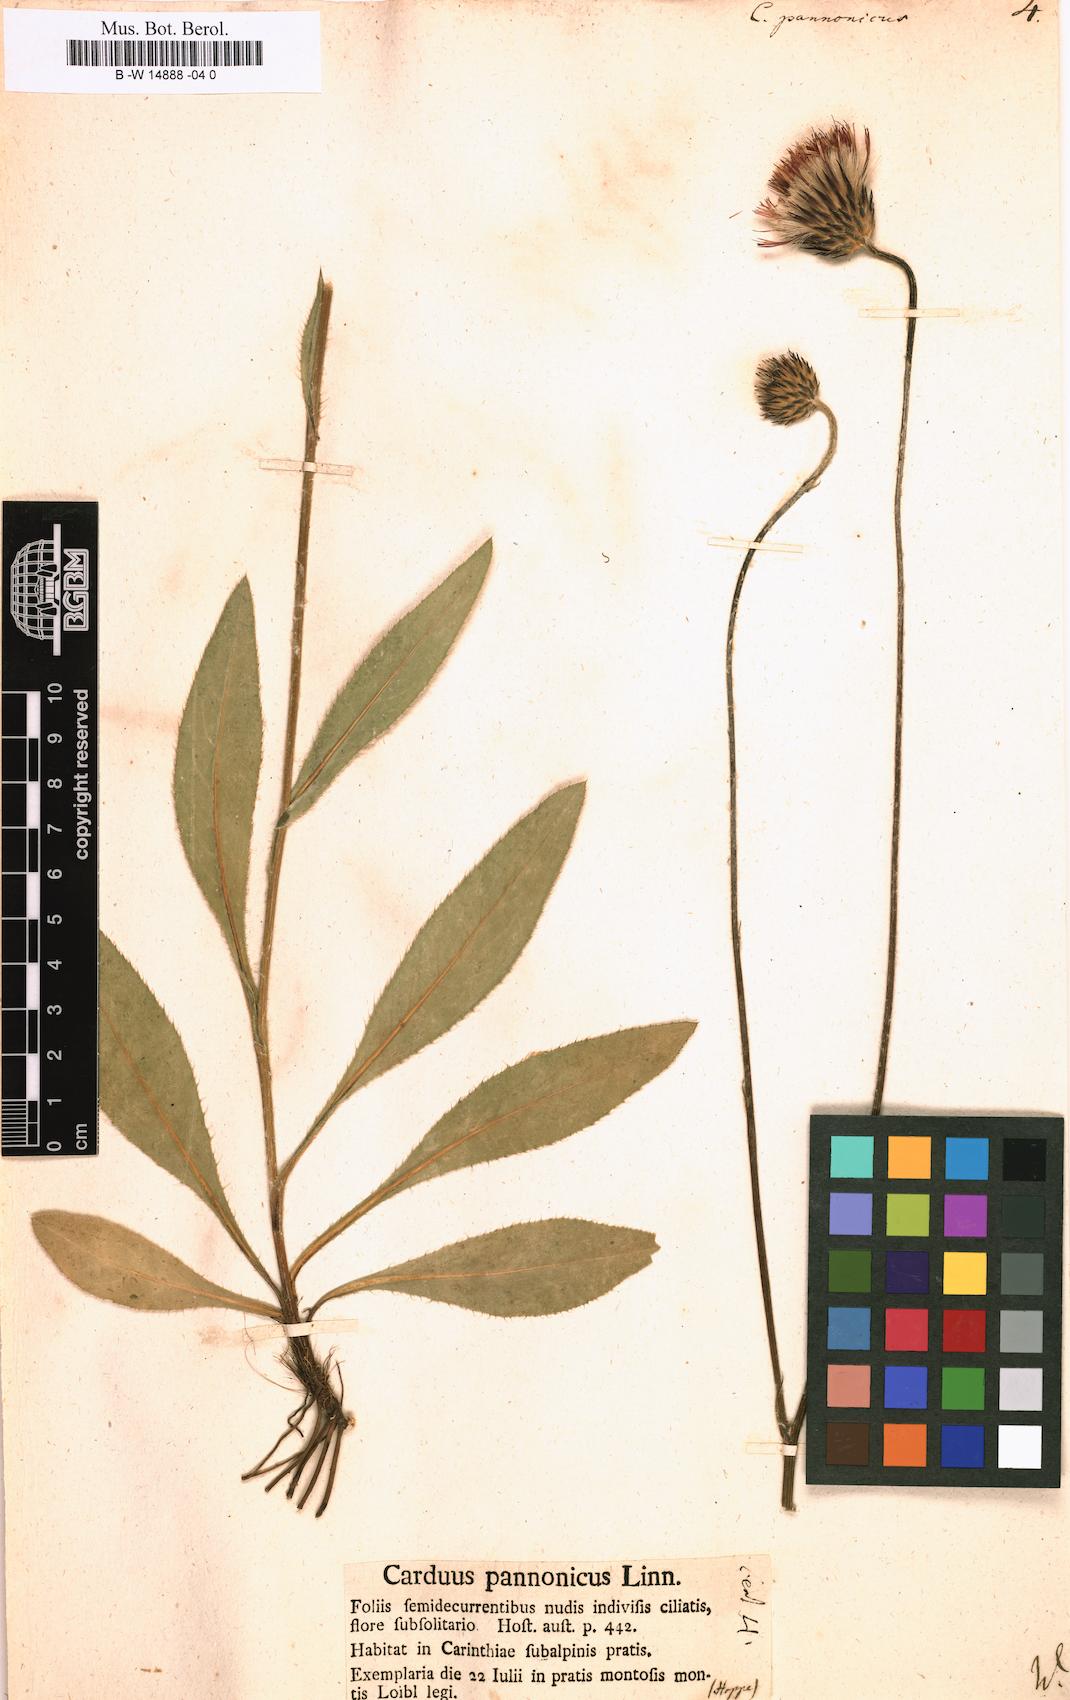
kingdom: Plantae
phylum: Tracheophyta
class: Magnoliopsida
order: Asterales
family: Asteraceae
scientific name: Asteraceae
